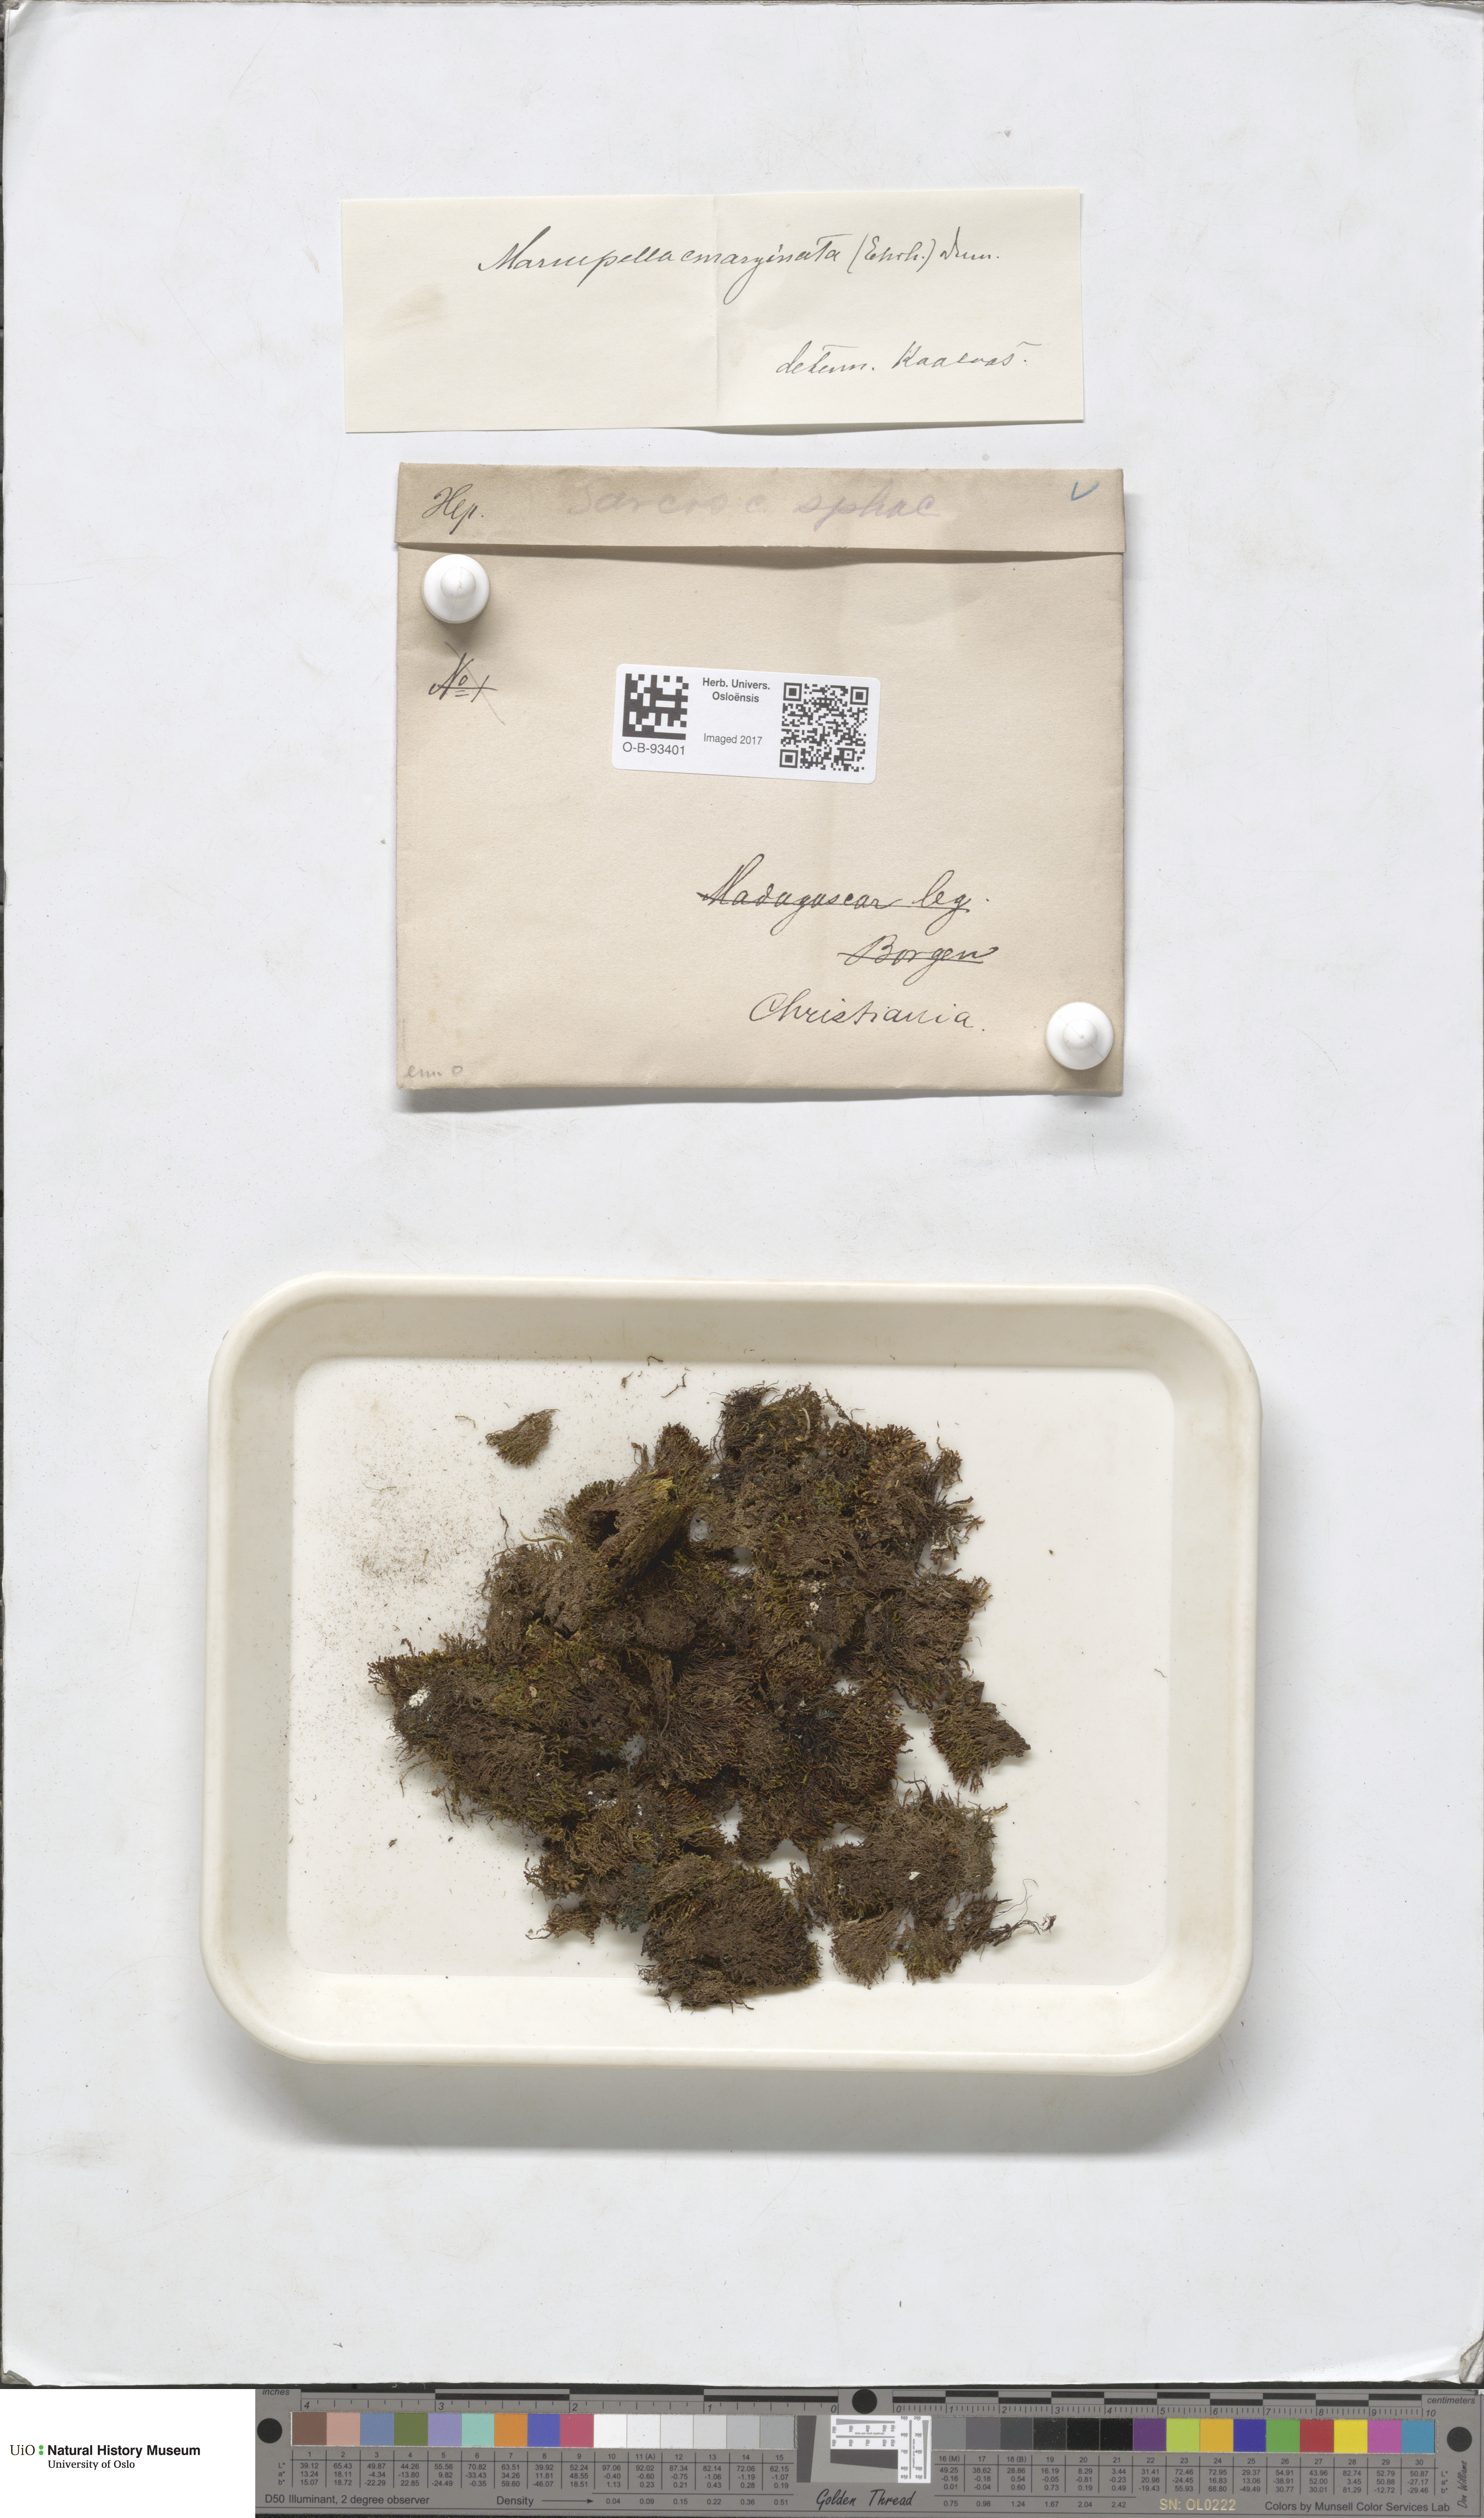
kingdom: Plantae
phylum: Marchantiophyta
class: Jungermanniopsida
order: Jungermanniales
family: Gymnomitriaceae
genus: Gymnomitrion
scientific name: Gymnomitrion brevissimum
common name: Snow rustwort
